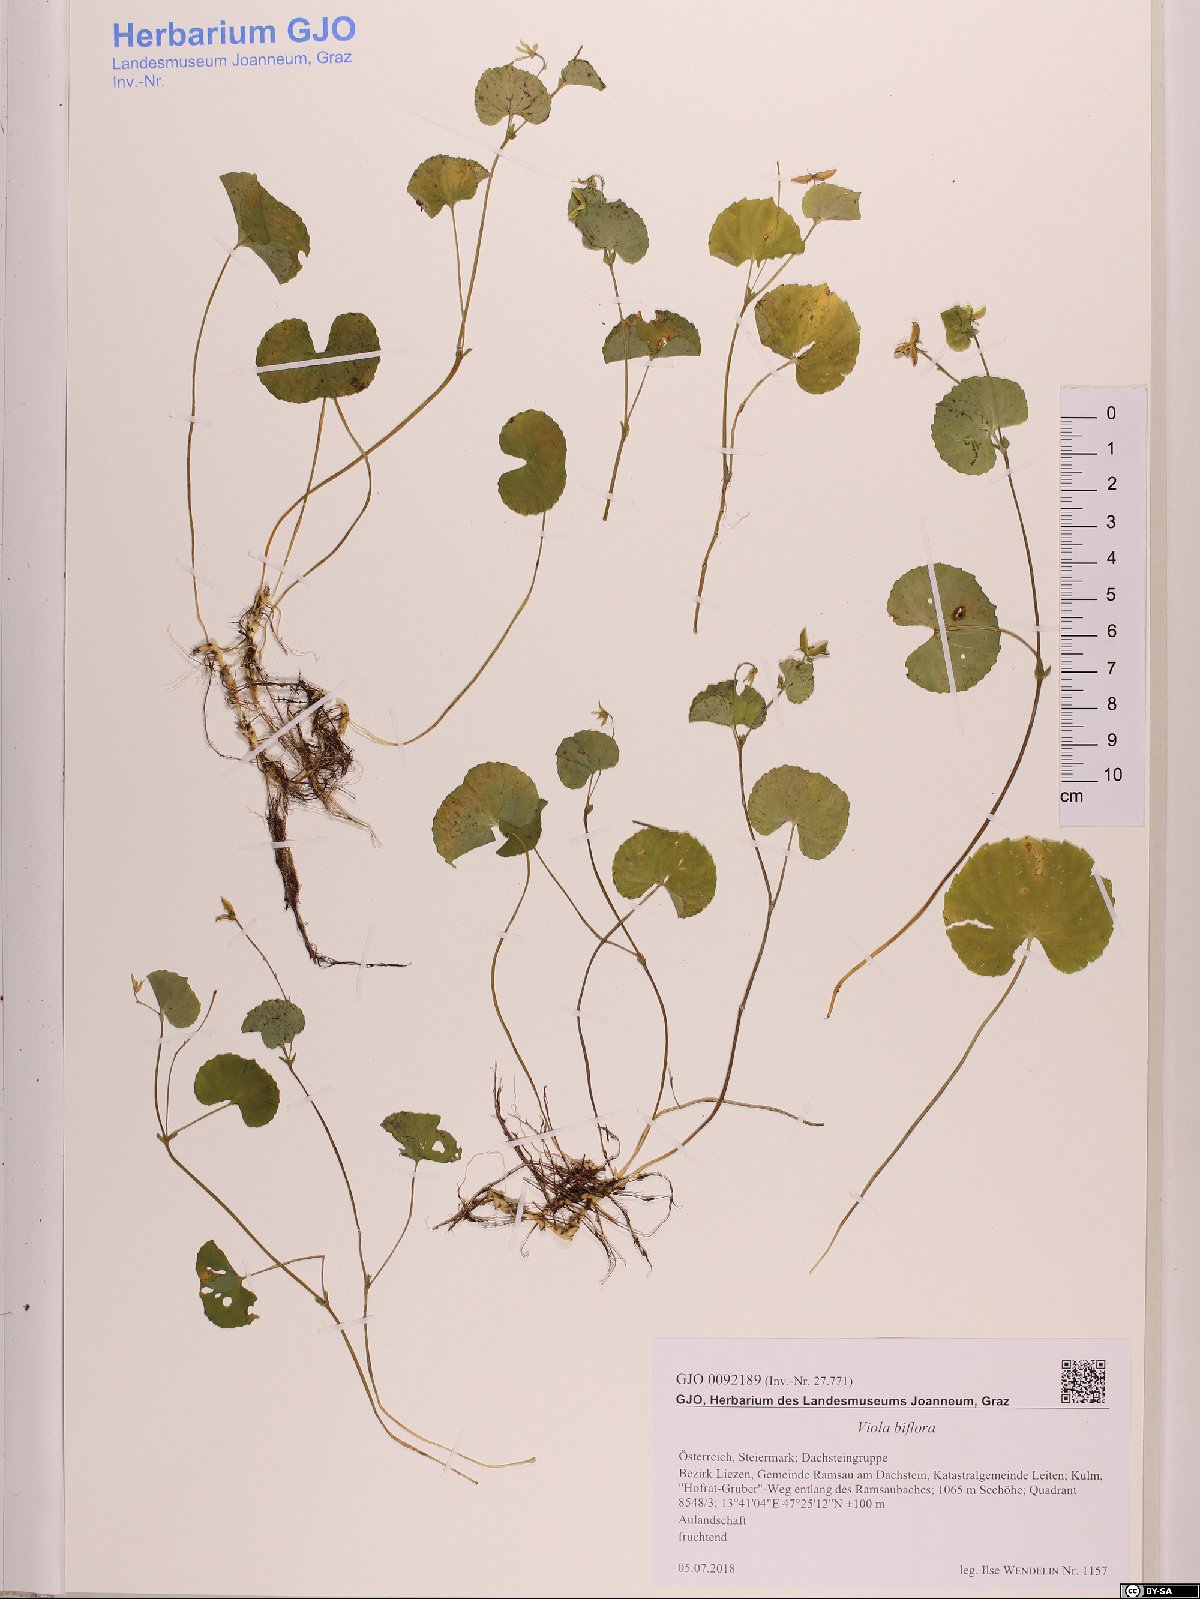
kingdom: Plantae
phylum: Tracheophyta
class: Magnoliopsida
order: Malpighiales
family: Violaceae
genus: Viola
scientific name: Viola biflora
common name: Alpine yellow violet
